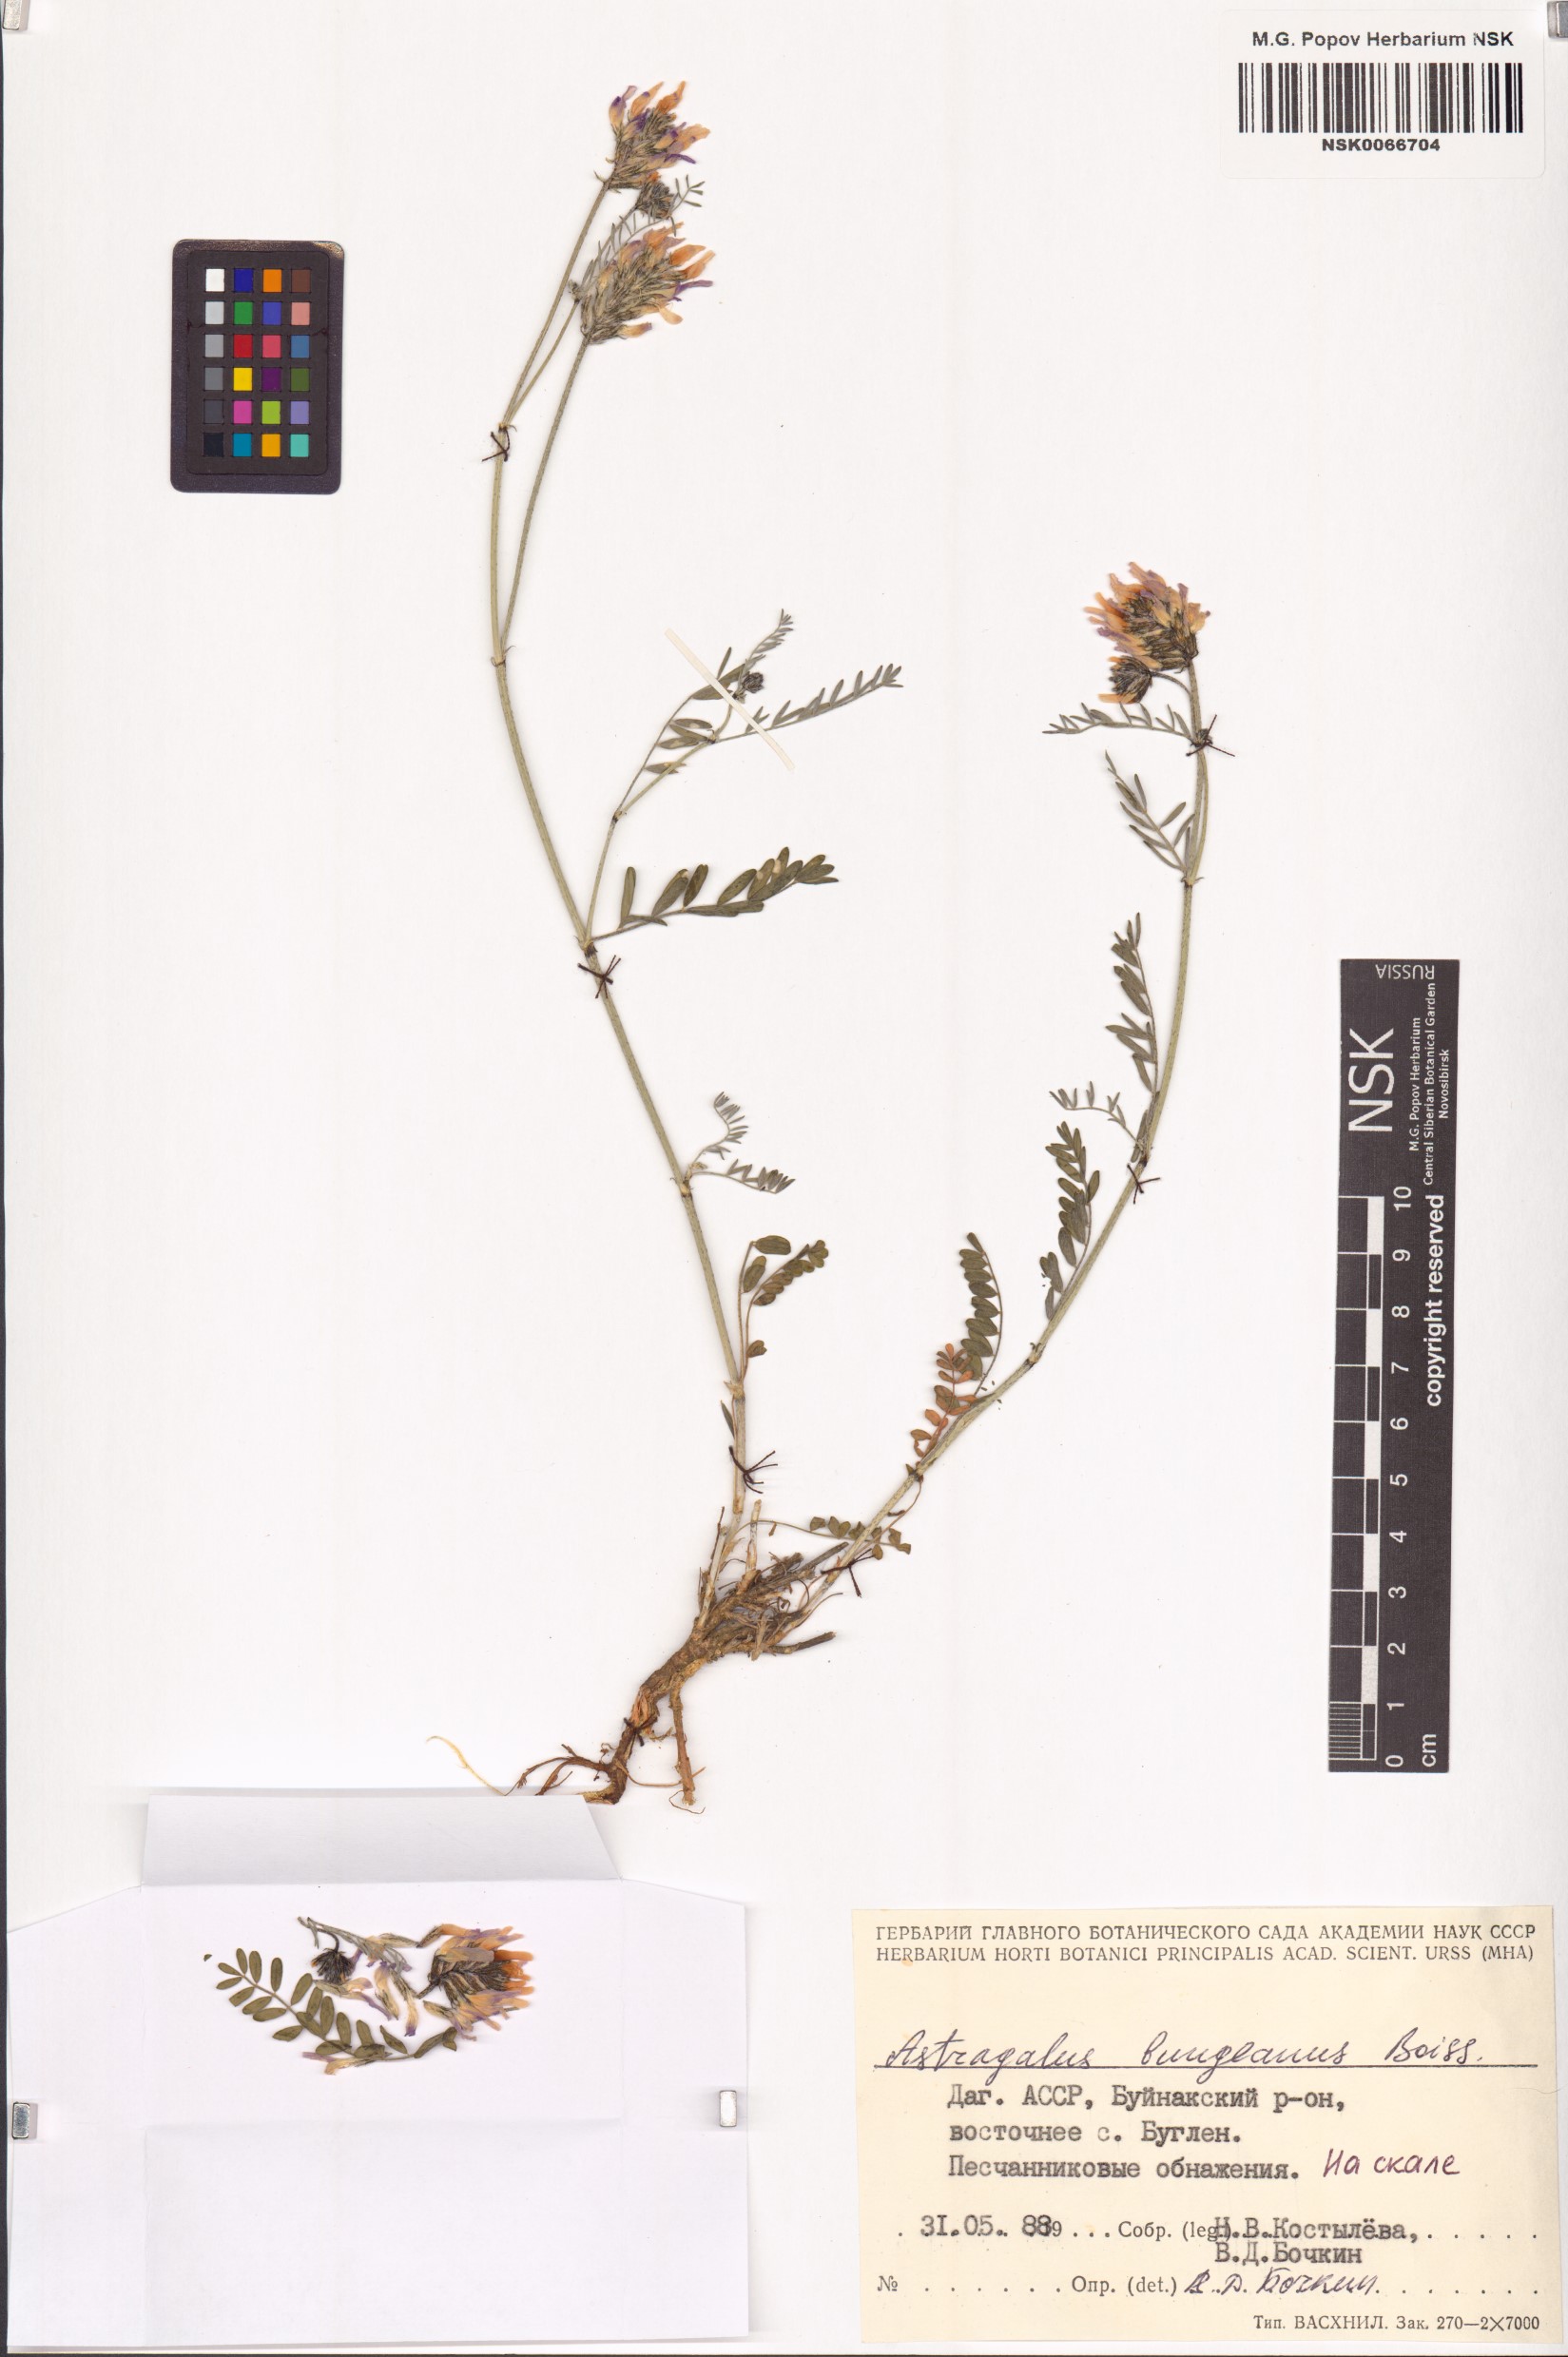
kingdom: Plantae
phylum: Tracheophyta
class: Magnoliopsida
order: Fabales
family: Fabaceae
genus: Astragalus
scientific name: Astragalus bungeanus
